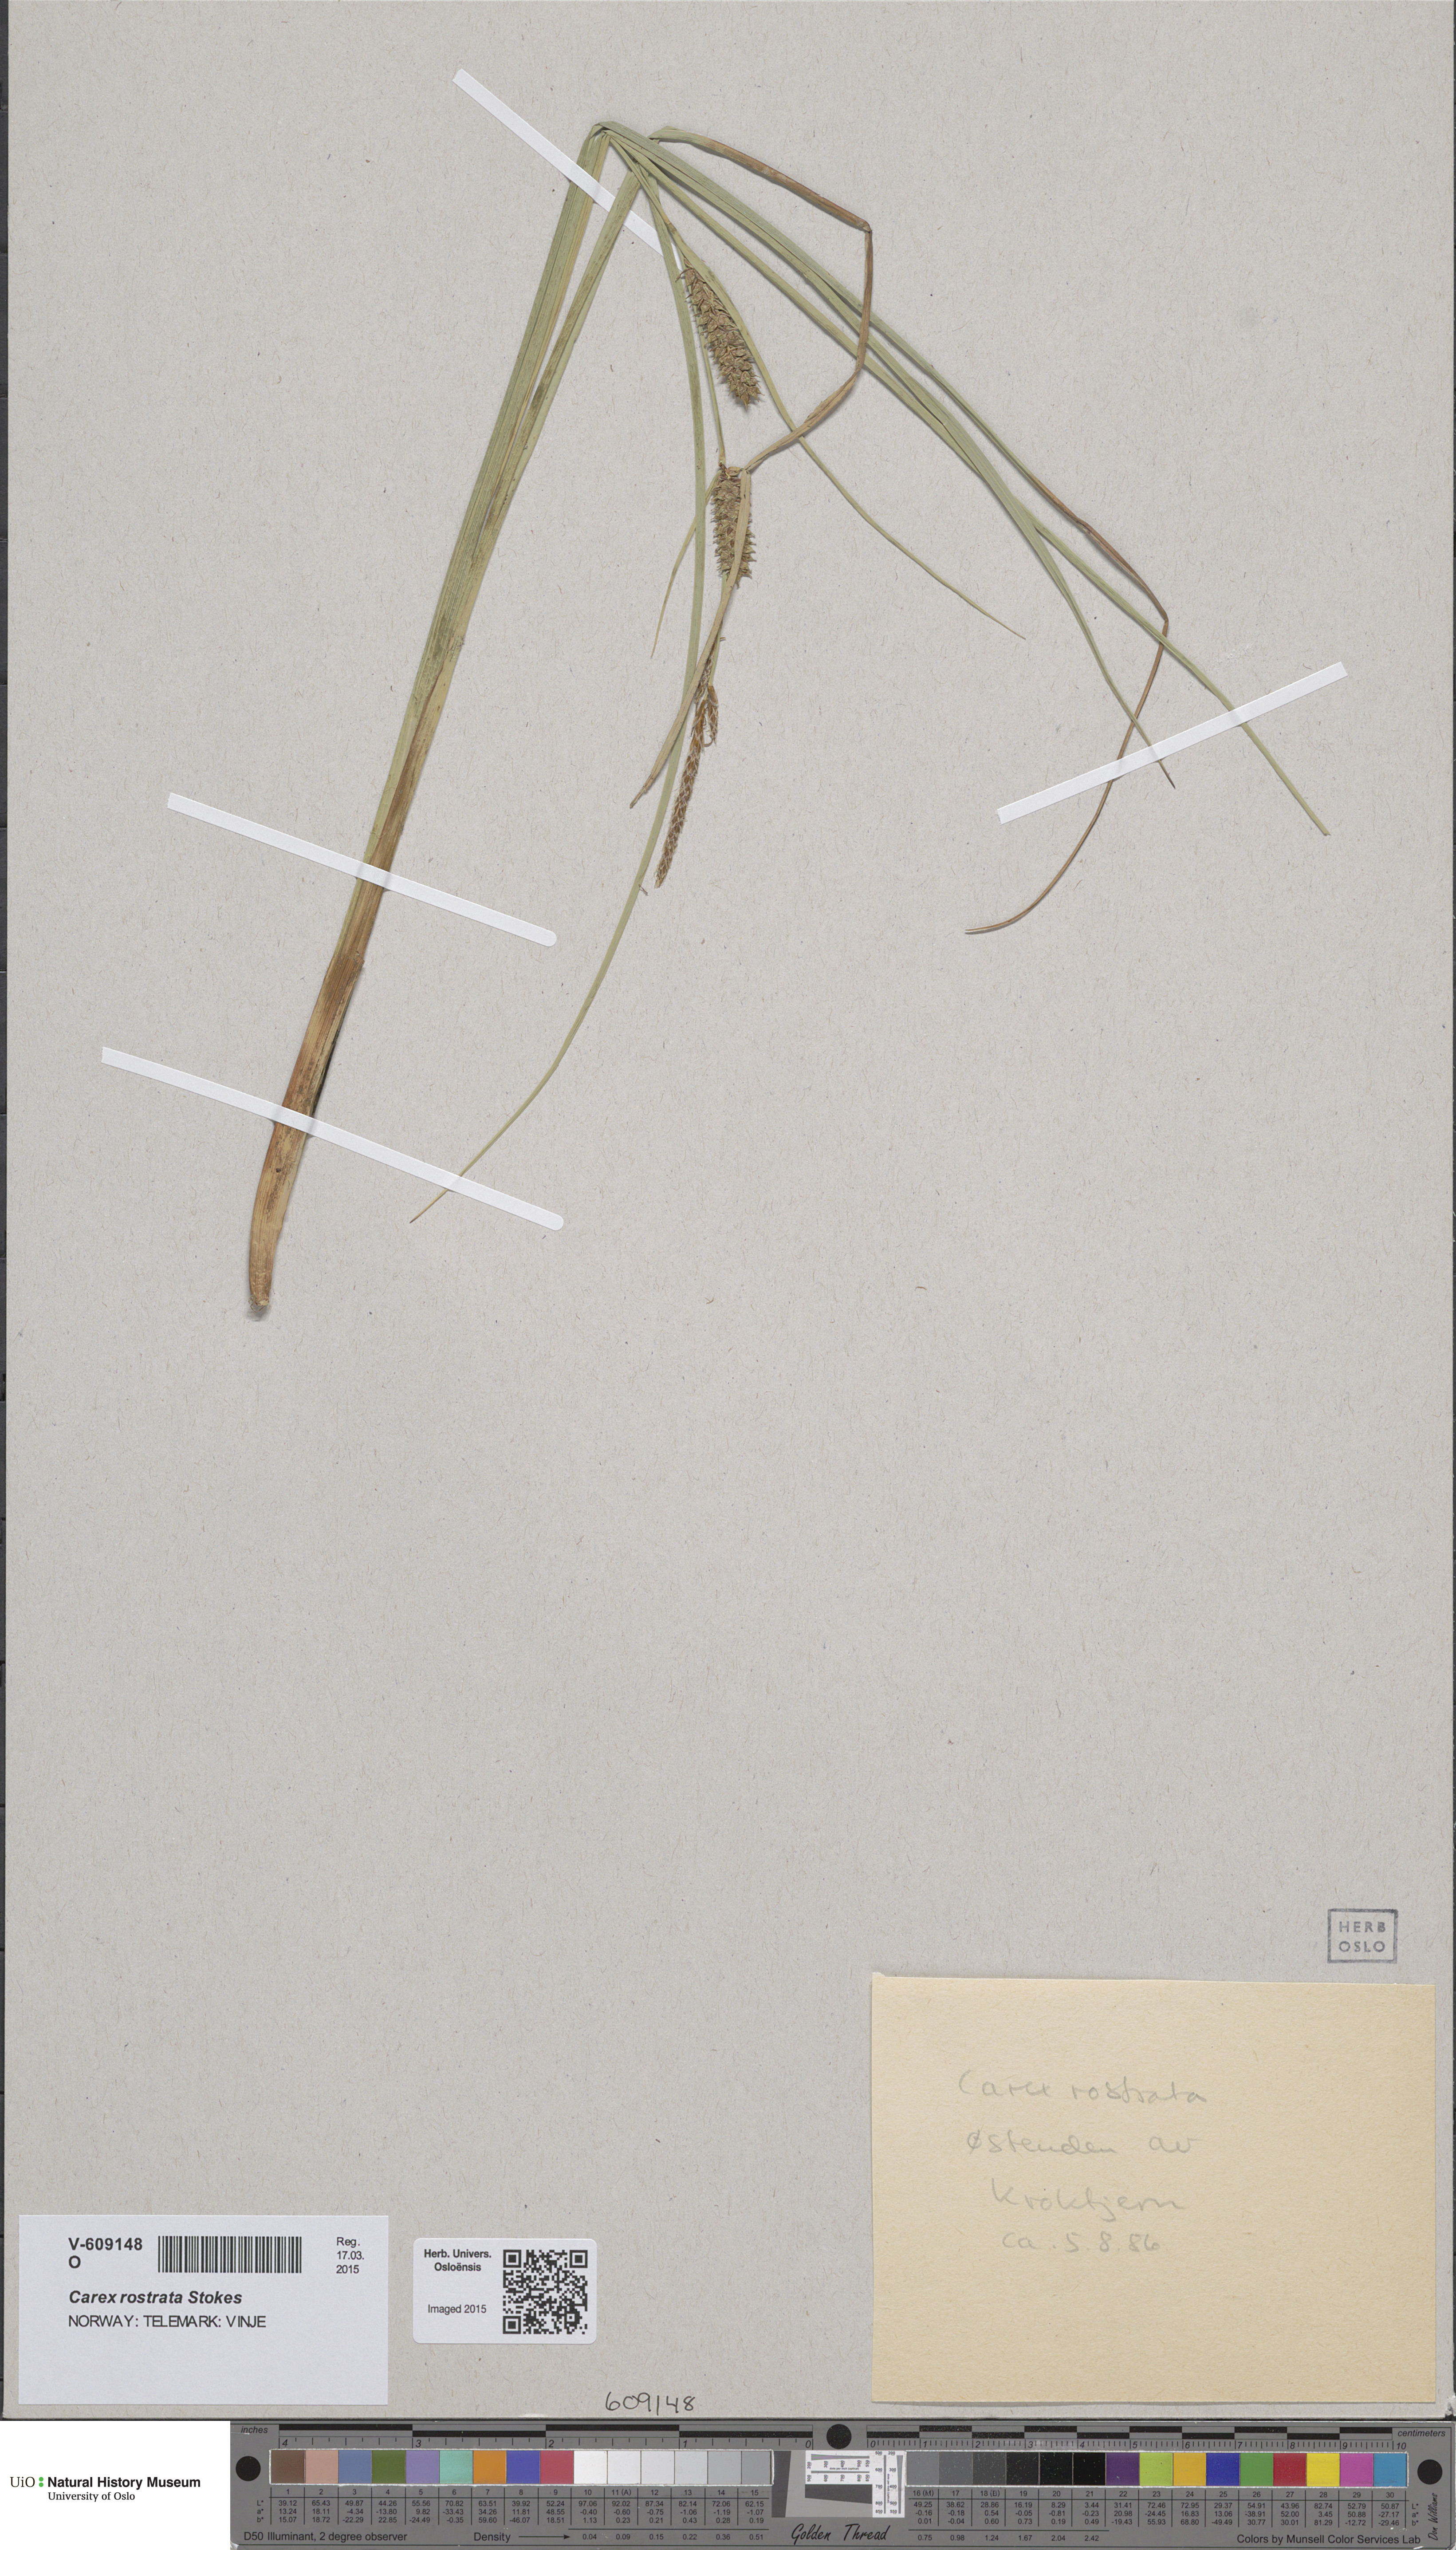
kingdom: Plantae
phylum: Tracheophyta
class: Liliopsida
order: Poales
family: Cyperaceae
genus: Carex
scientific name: Carex rostrata
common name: Bottle sedge
